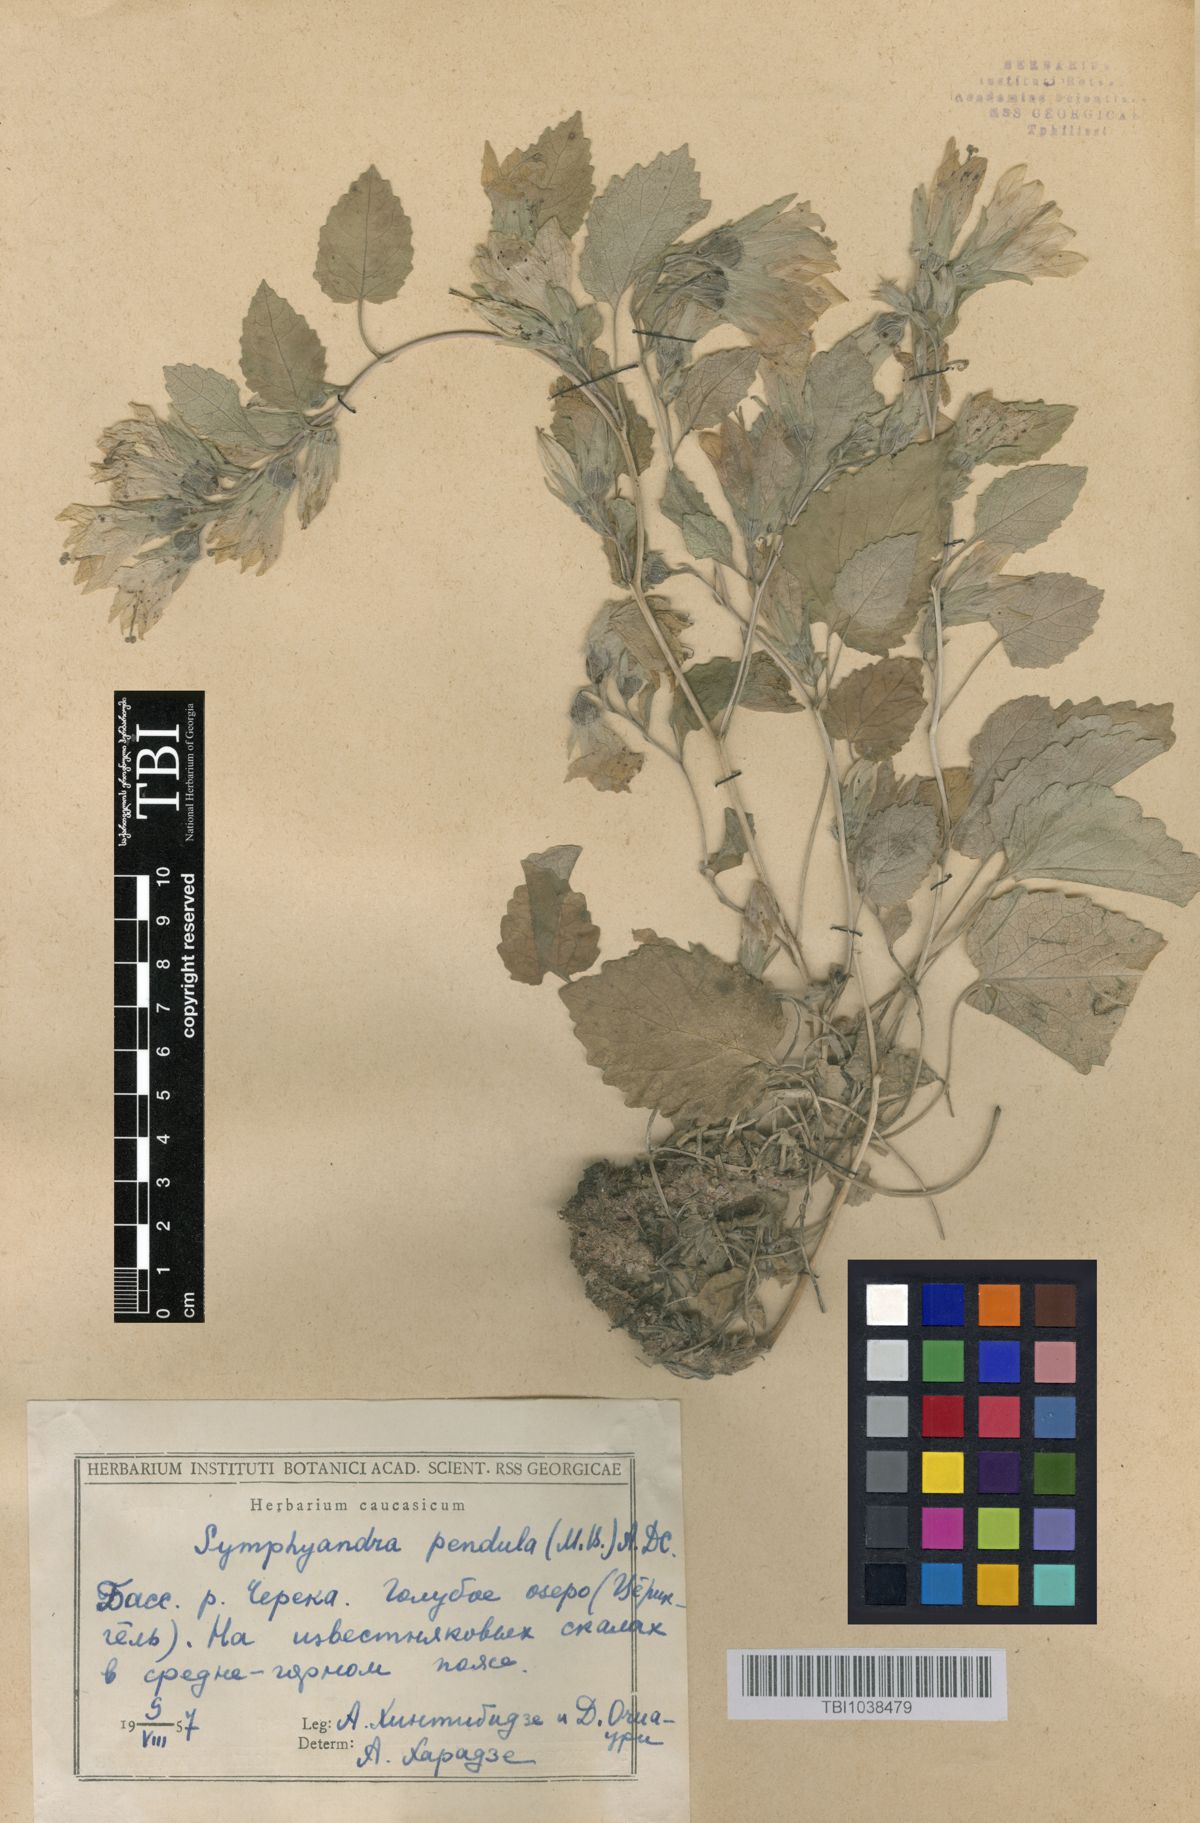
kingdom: Plantae
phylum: Tracheophyta
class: Magnoliopsida
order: Asterales
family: Campanulaceae
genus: Campanula
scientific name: Campanula pendula
